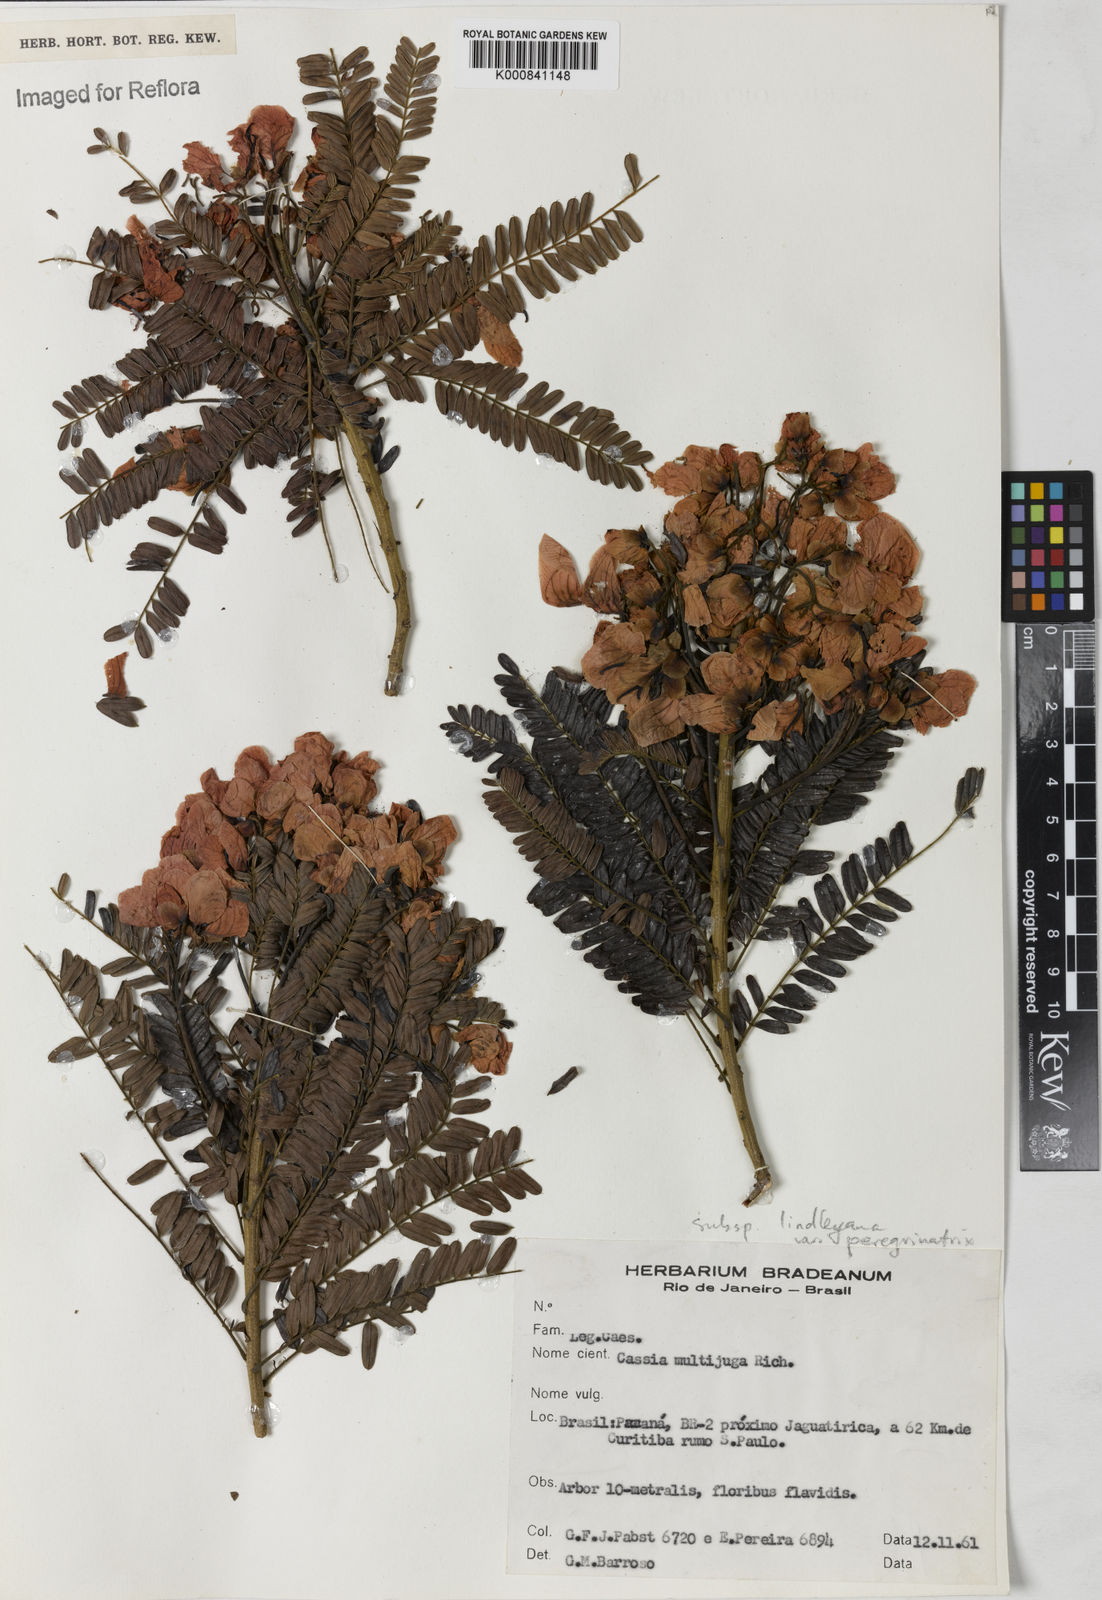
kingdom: Plantae
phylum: Tracheophyta
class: Magnoliopsida
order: Fabales
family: Fabaceae
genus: Senna
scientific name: Senna multijuga
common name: False sicklepod
